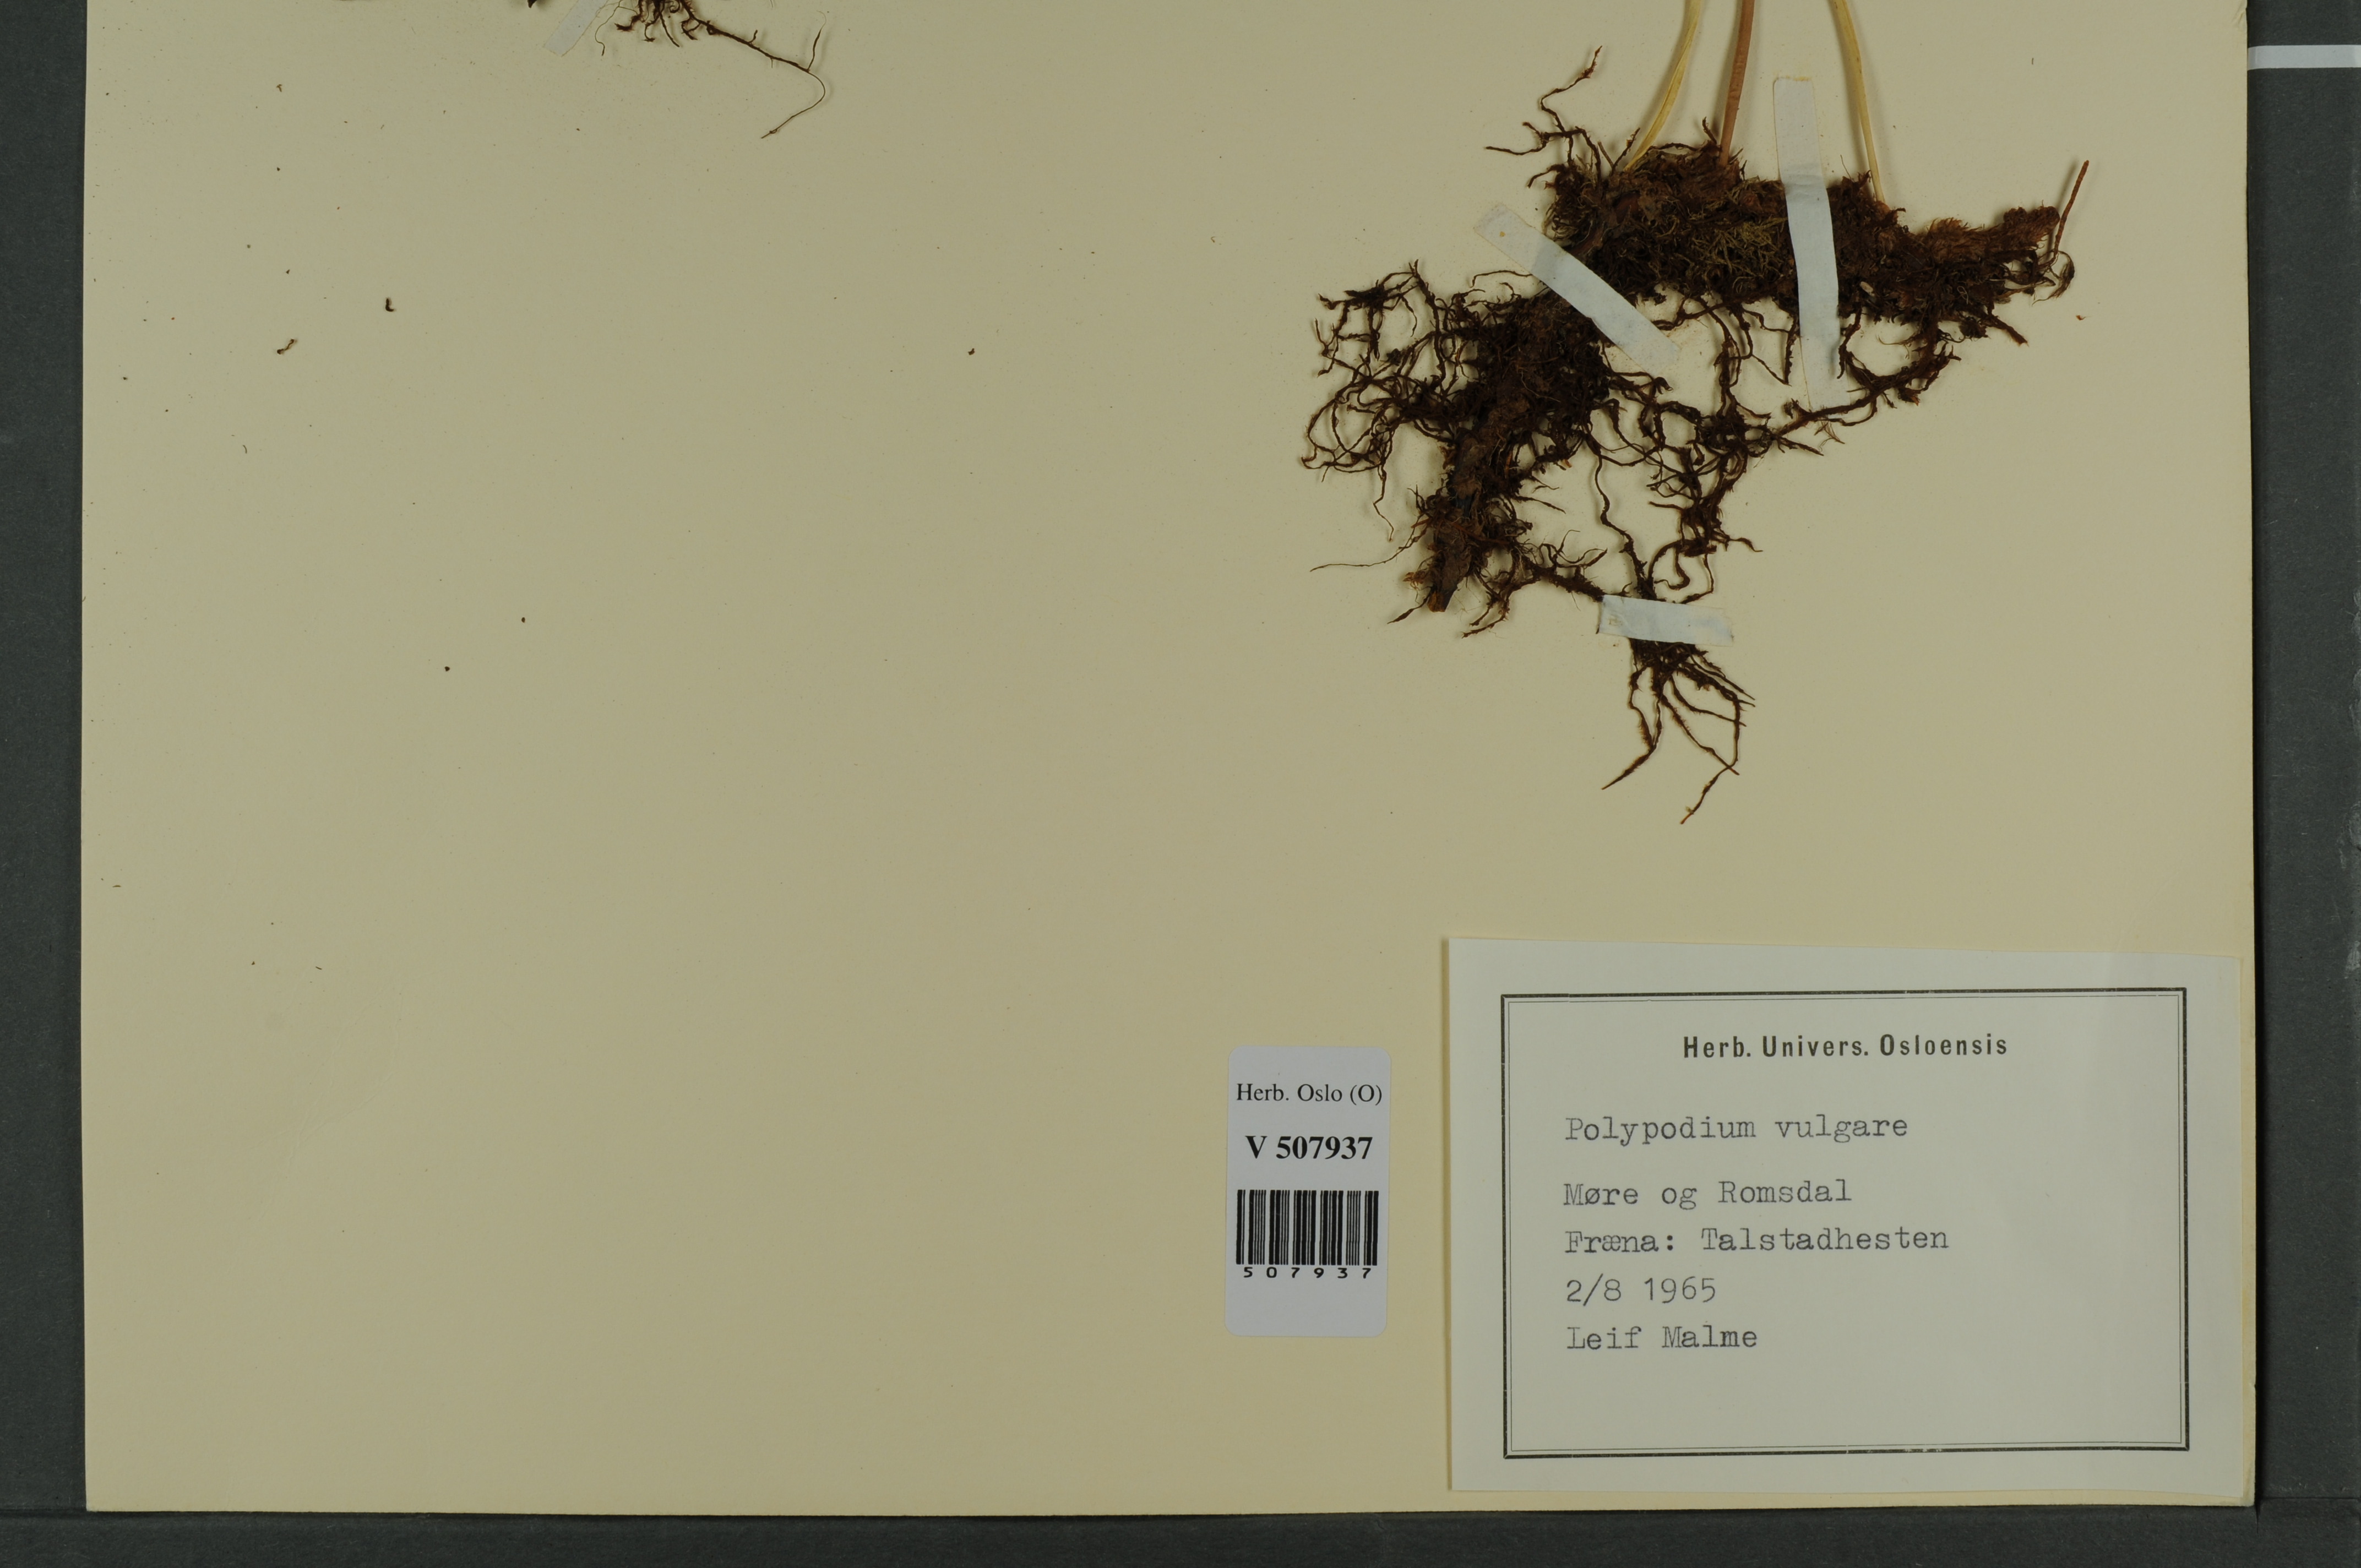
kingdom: Plantae
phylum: Tracheophyta
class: Polypodiopsida
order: Polypodiales
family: Polypodiaceae
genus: Polypodium
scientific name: Polypodium vulgare
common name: Common polypody
